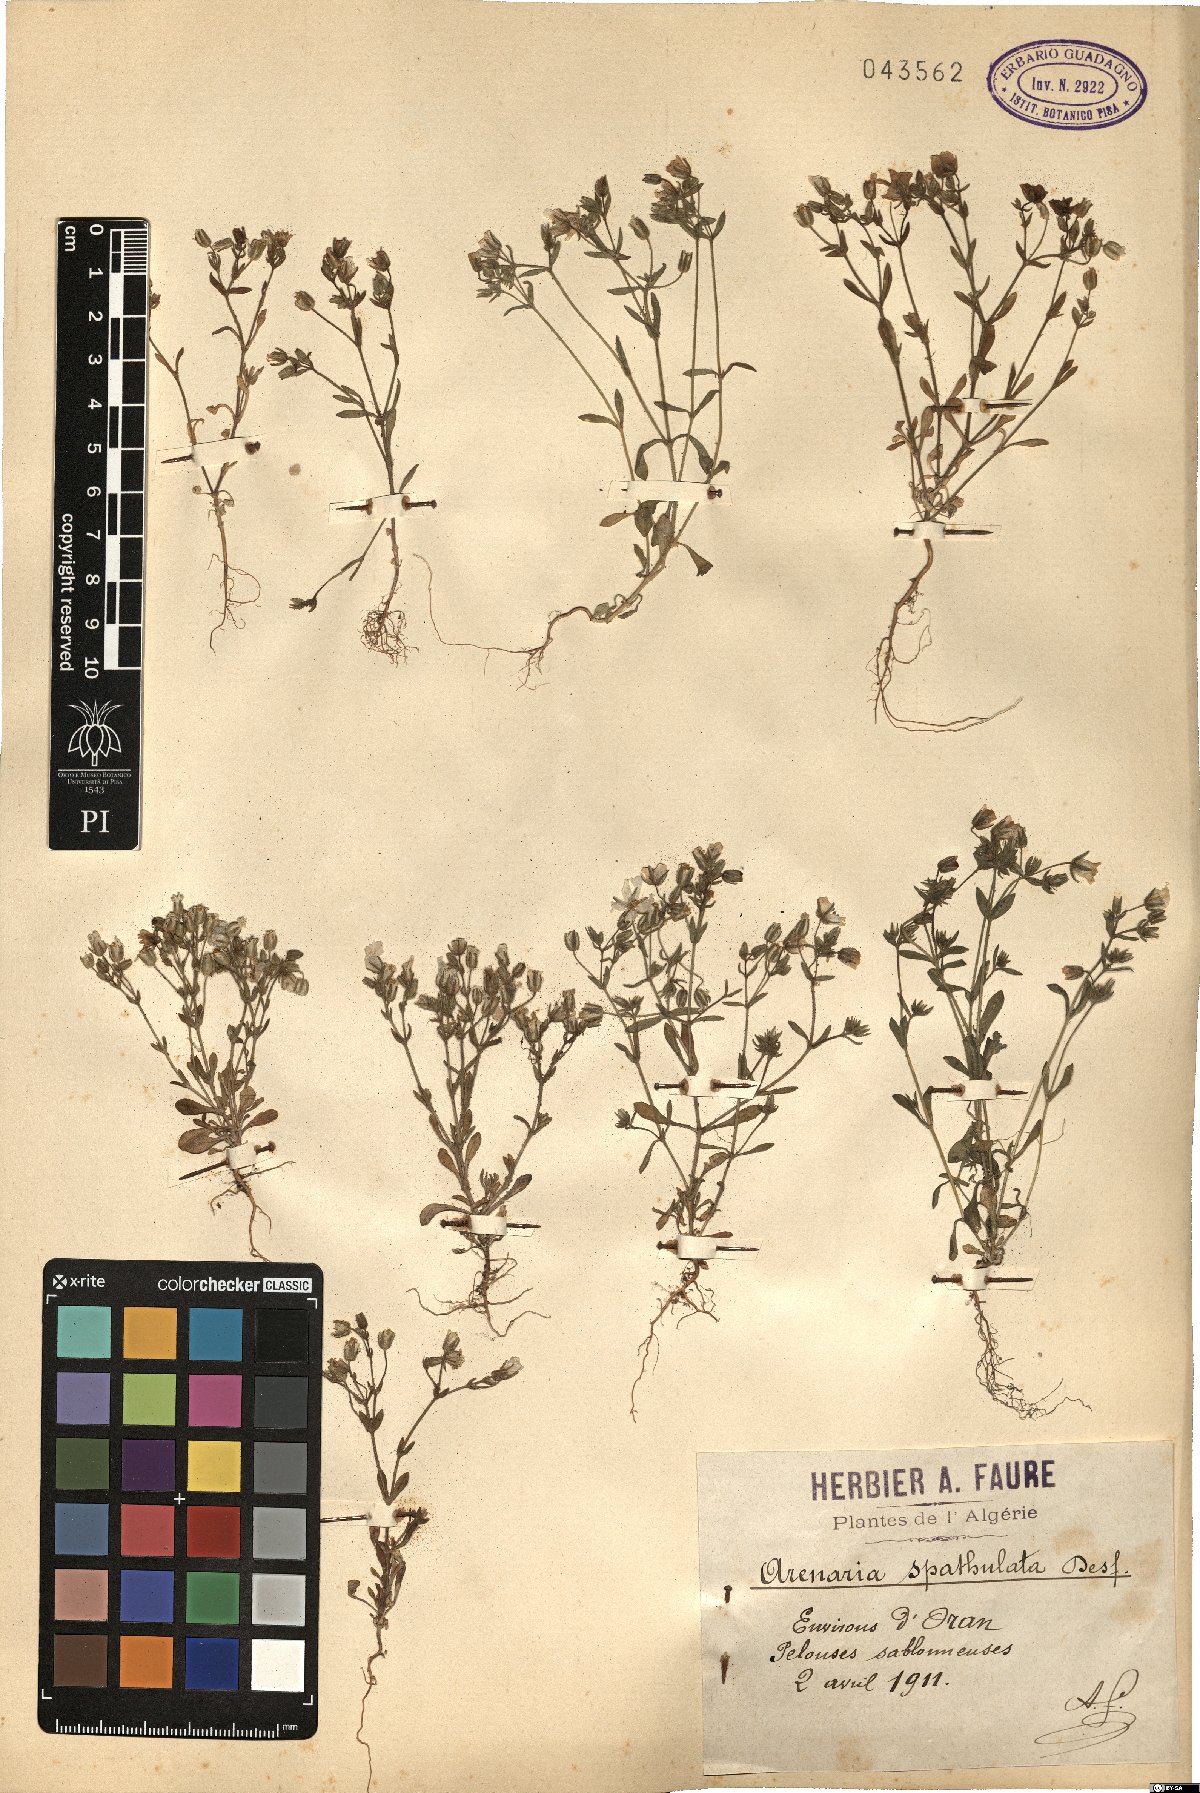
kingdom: Plantae
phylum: Tracheophyta
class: Magnoliopsida
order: Caryophyllales
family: Caryophyllaceae
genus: Arenaria
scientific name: Arenaria cerastioides
